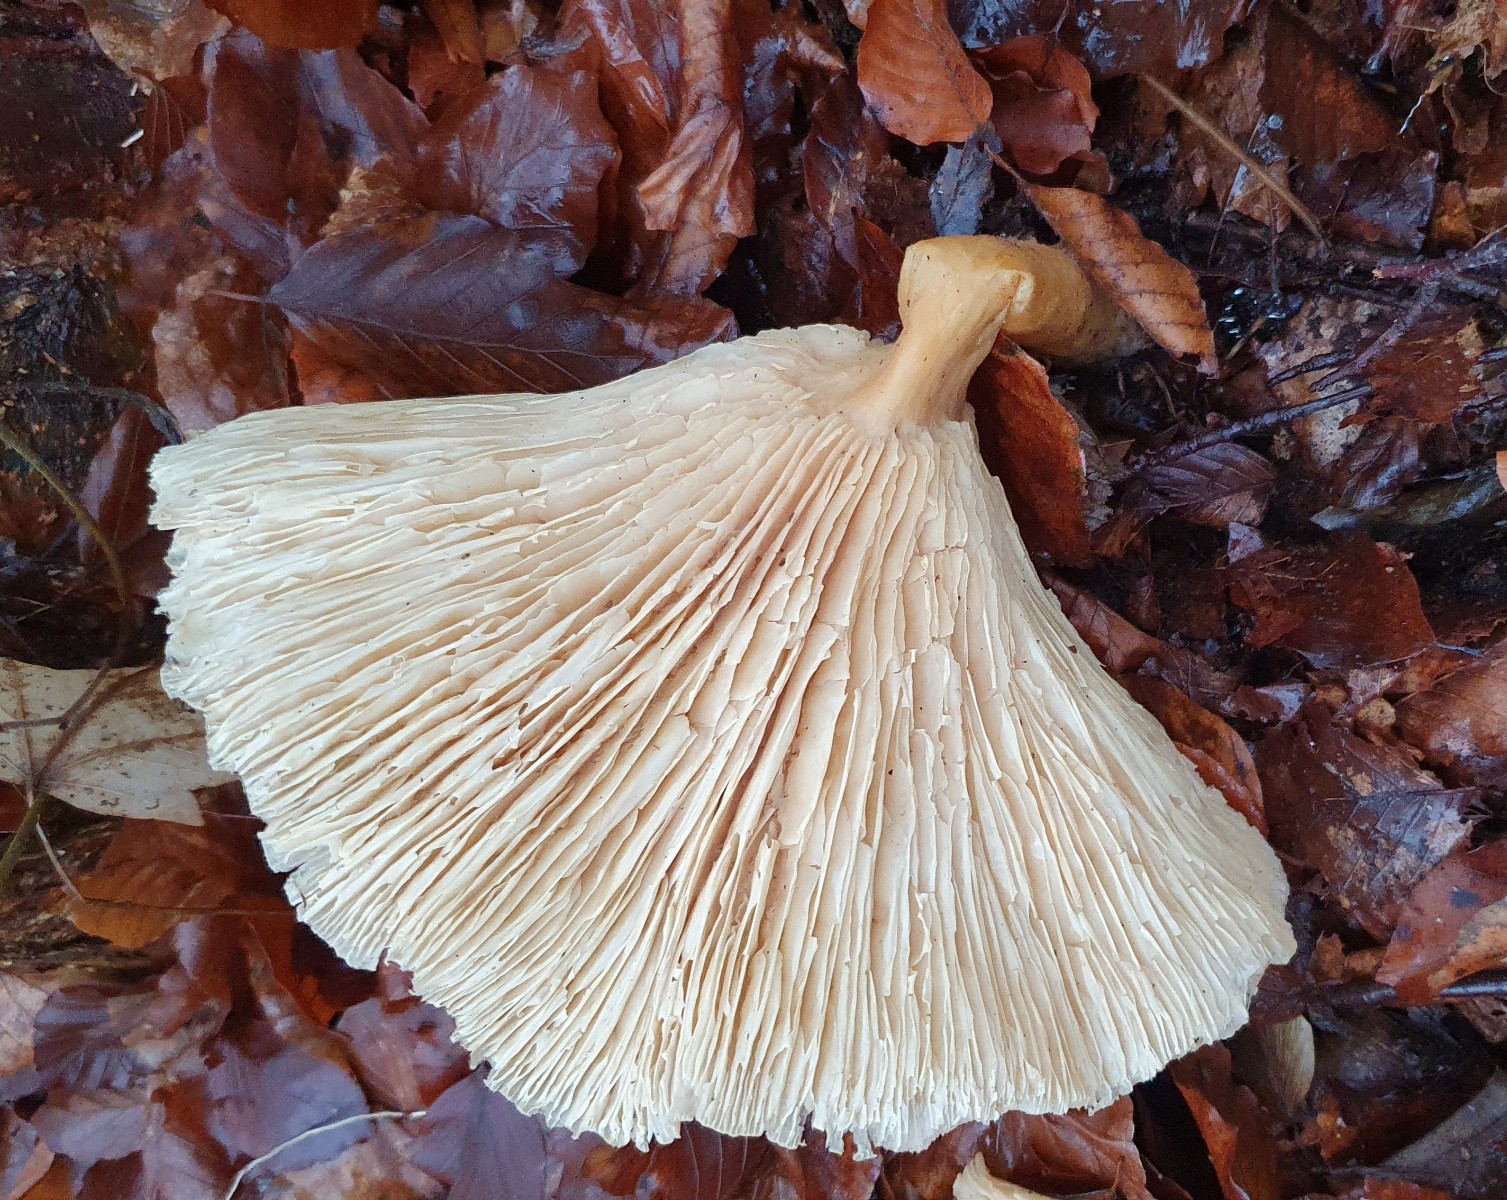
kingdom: Fungi
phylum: Basidiomycota
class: Agaricomycetes
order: Agaricales
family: Tricholomataceae
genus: Infundibulicybe
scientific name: Infundibulicybe geotropa
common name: stor tragthat
